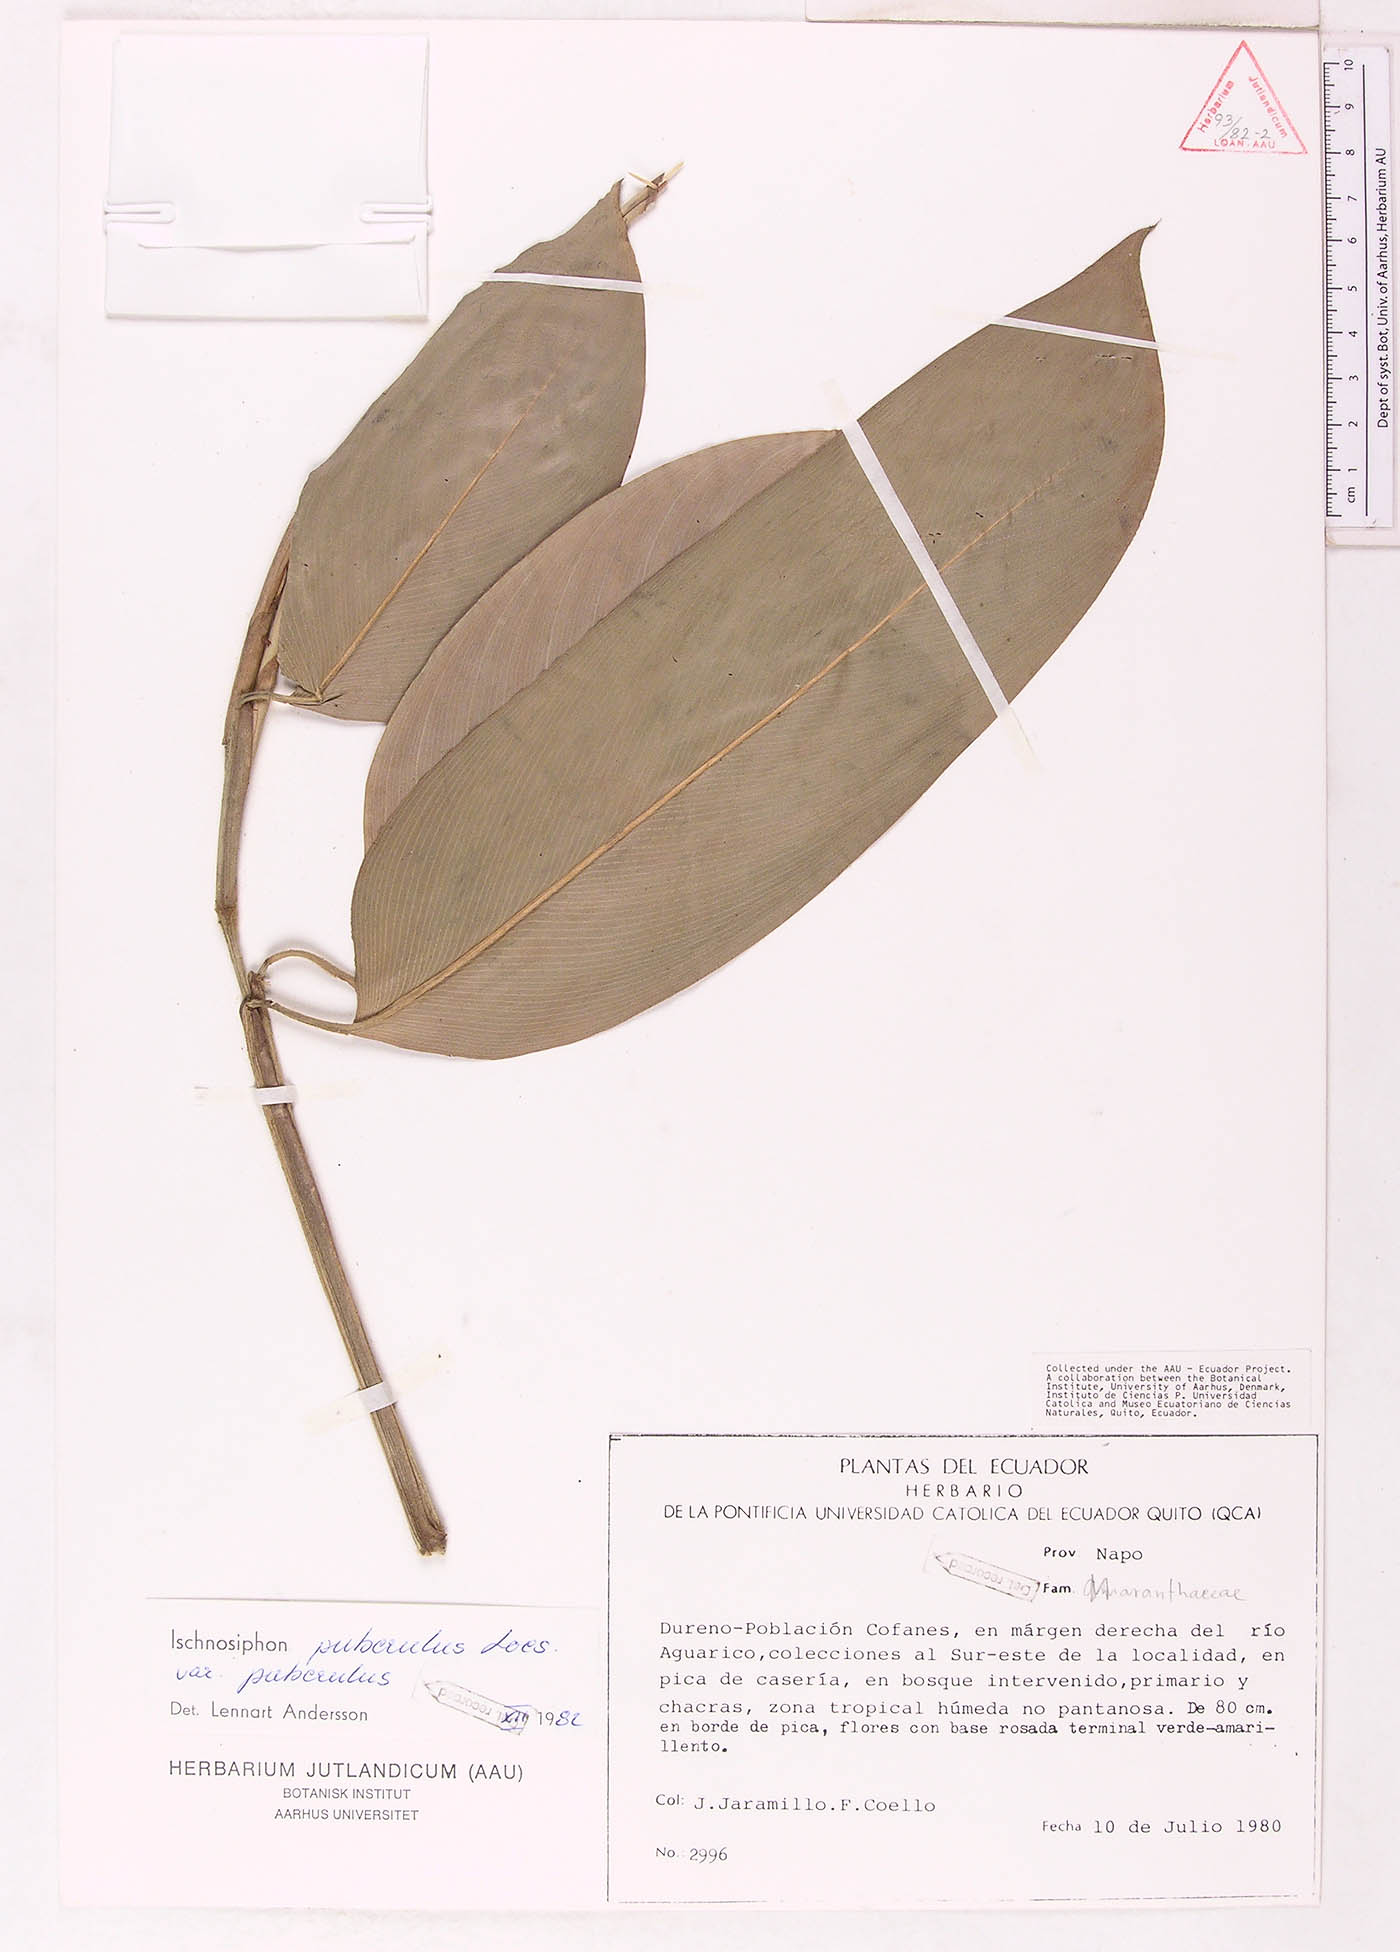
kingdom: Plantae
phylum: Tracheophyta
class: Liliopsida
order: Zingiberales
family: Marantaceae
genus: Ischnosiphon
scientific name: Ischnosiphon puberulus
